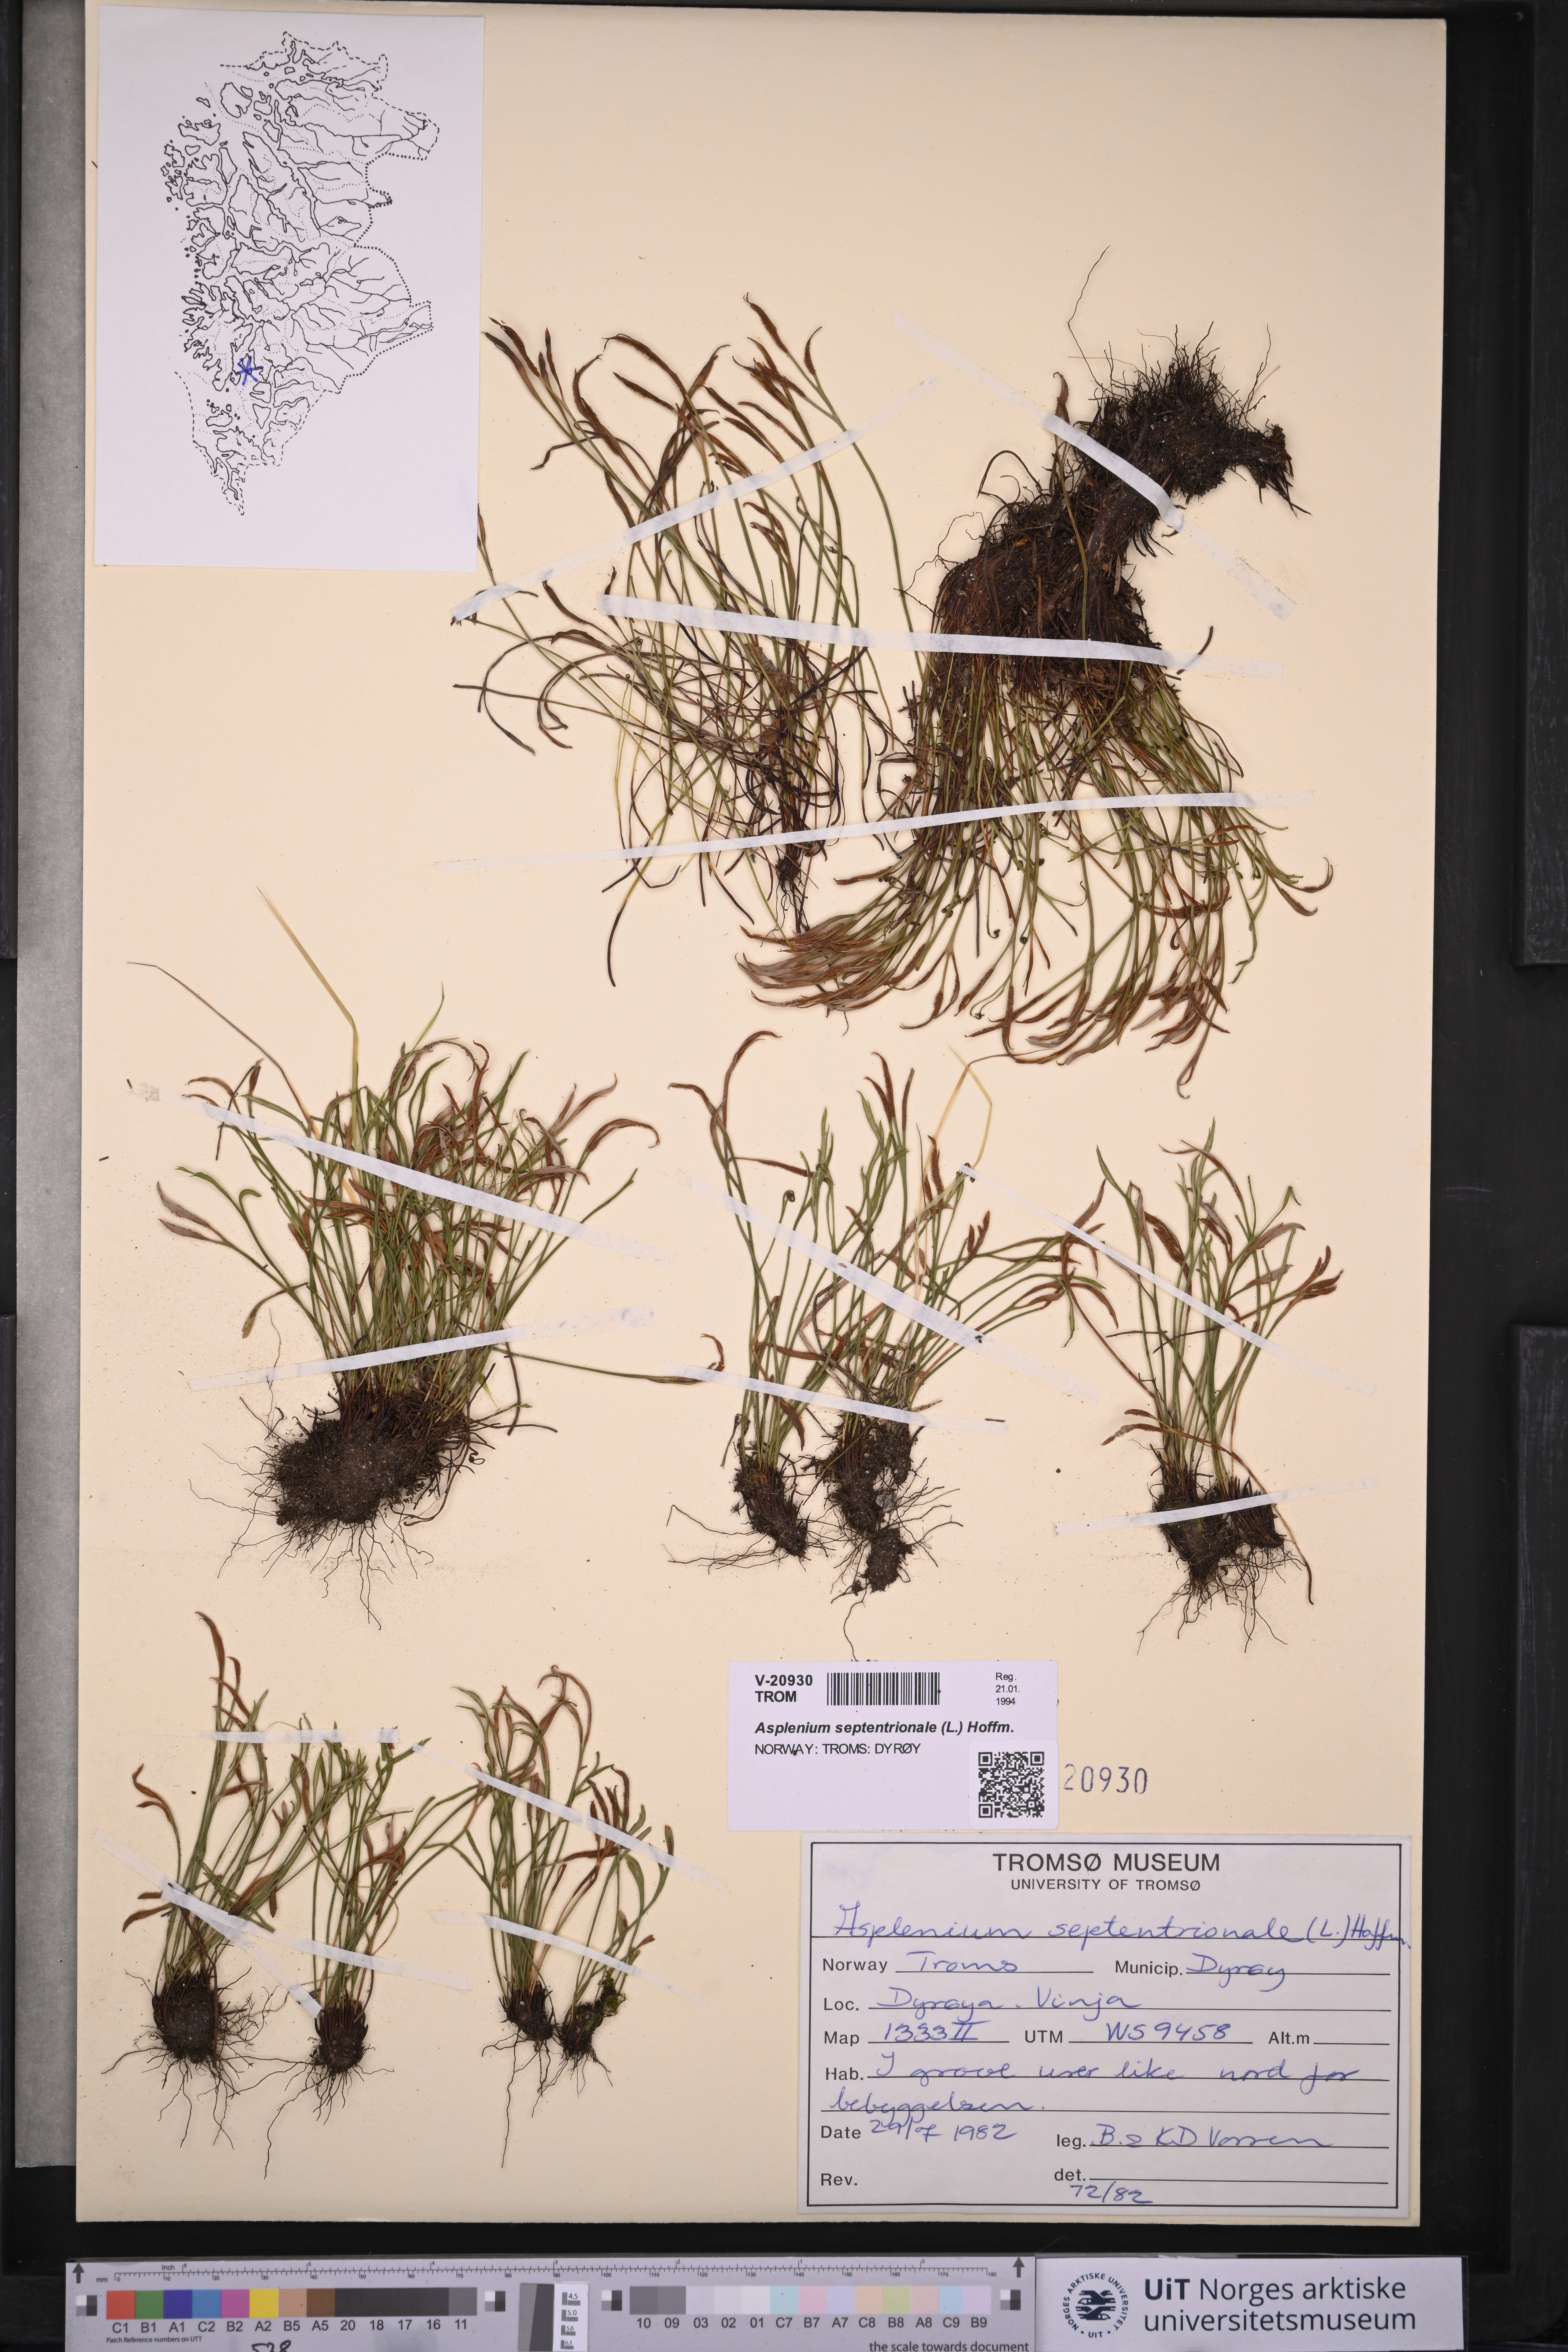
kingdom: Plantae
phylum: Tracheophyta
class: Polypodiopsida
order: Polypodiales
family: Aspleniaceae
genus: Asplenium
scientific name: Asplenium septentrionale
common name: Forked spleenwort
